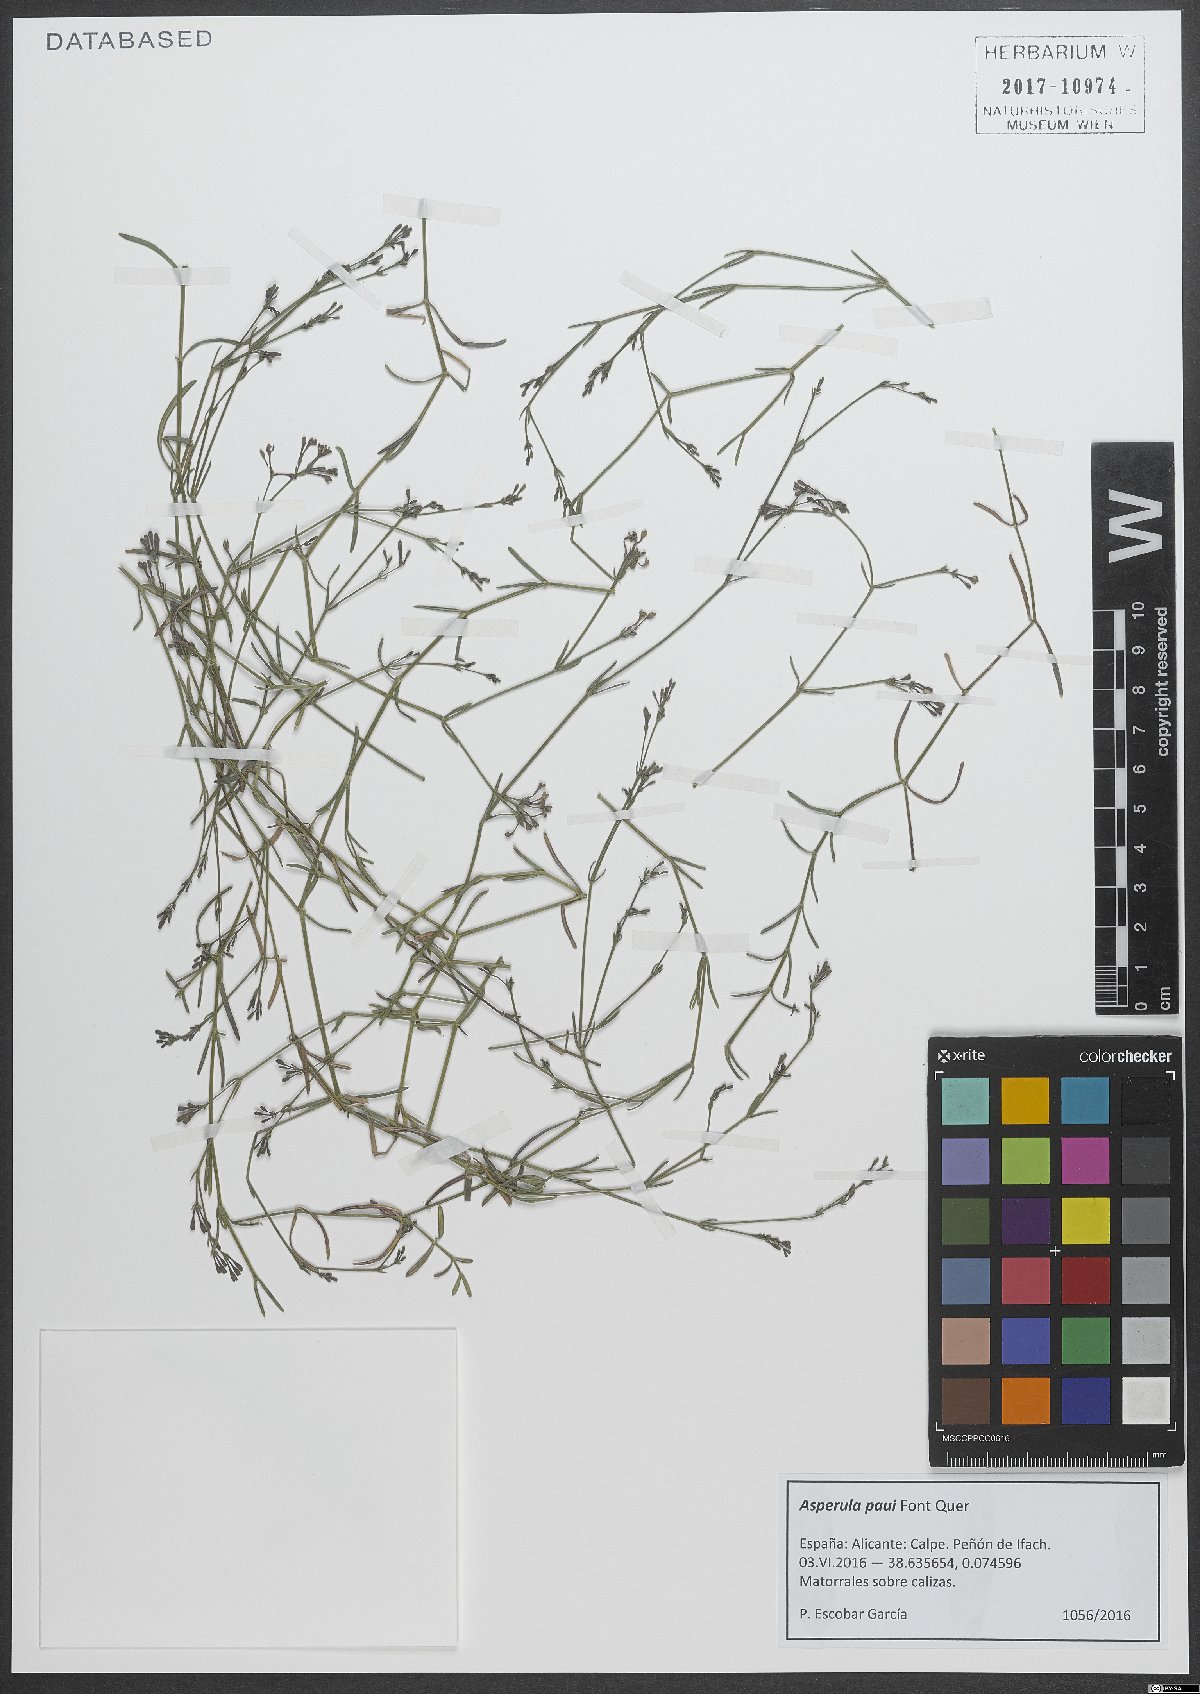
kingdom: Plantae
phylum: Tracheophyta
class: Magnoliopsida
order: Gentianales
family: Rubiaceae
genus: Cynanchica
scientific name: Cynanchica paui
